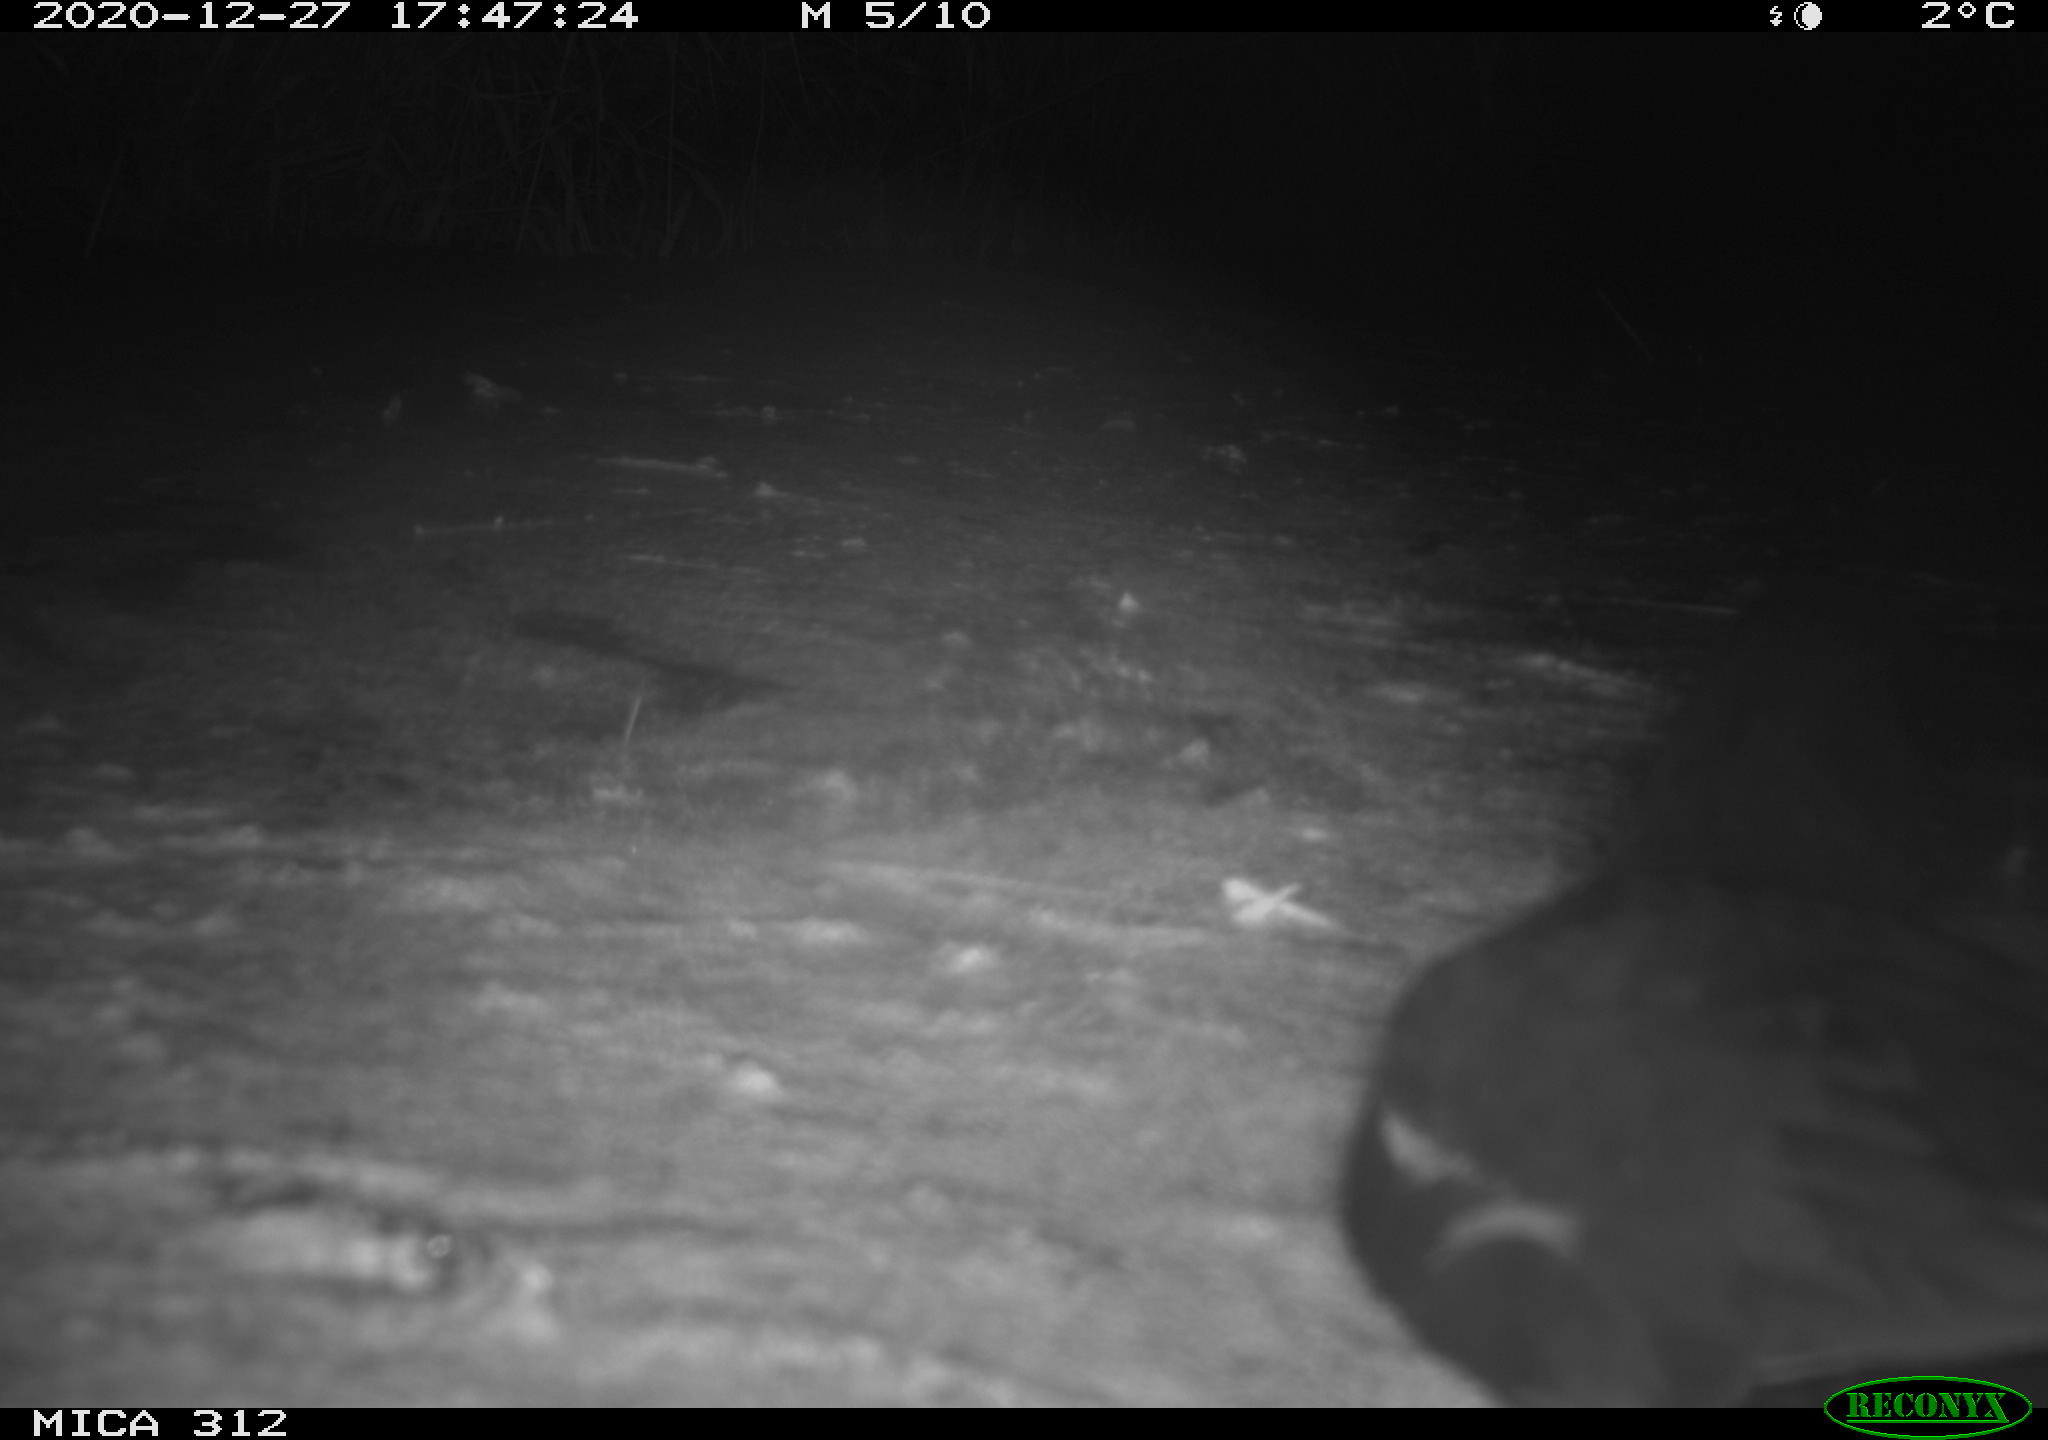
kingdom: Animalia
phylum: Chordata
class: Aves
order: Gruiformes
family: Rallidae
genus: Gallinula
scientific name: Gallinula chloropus
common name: Common moorhen
